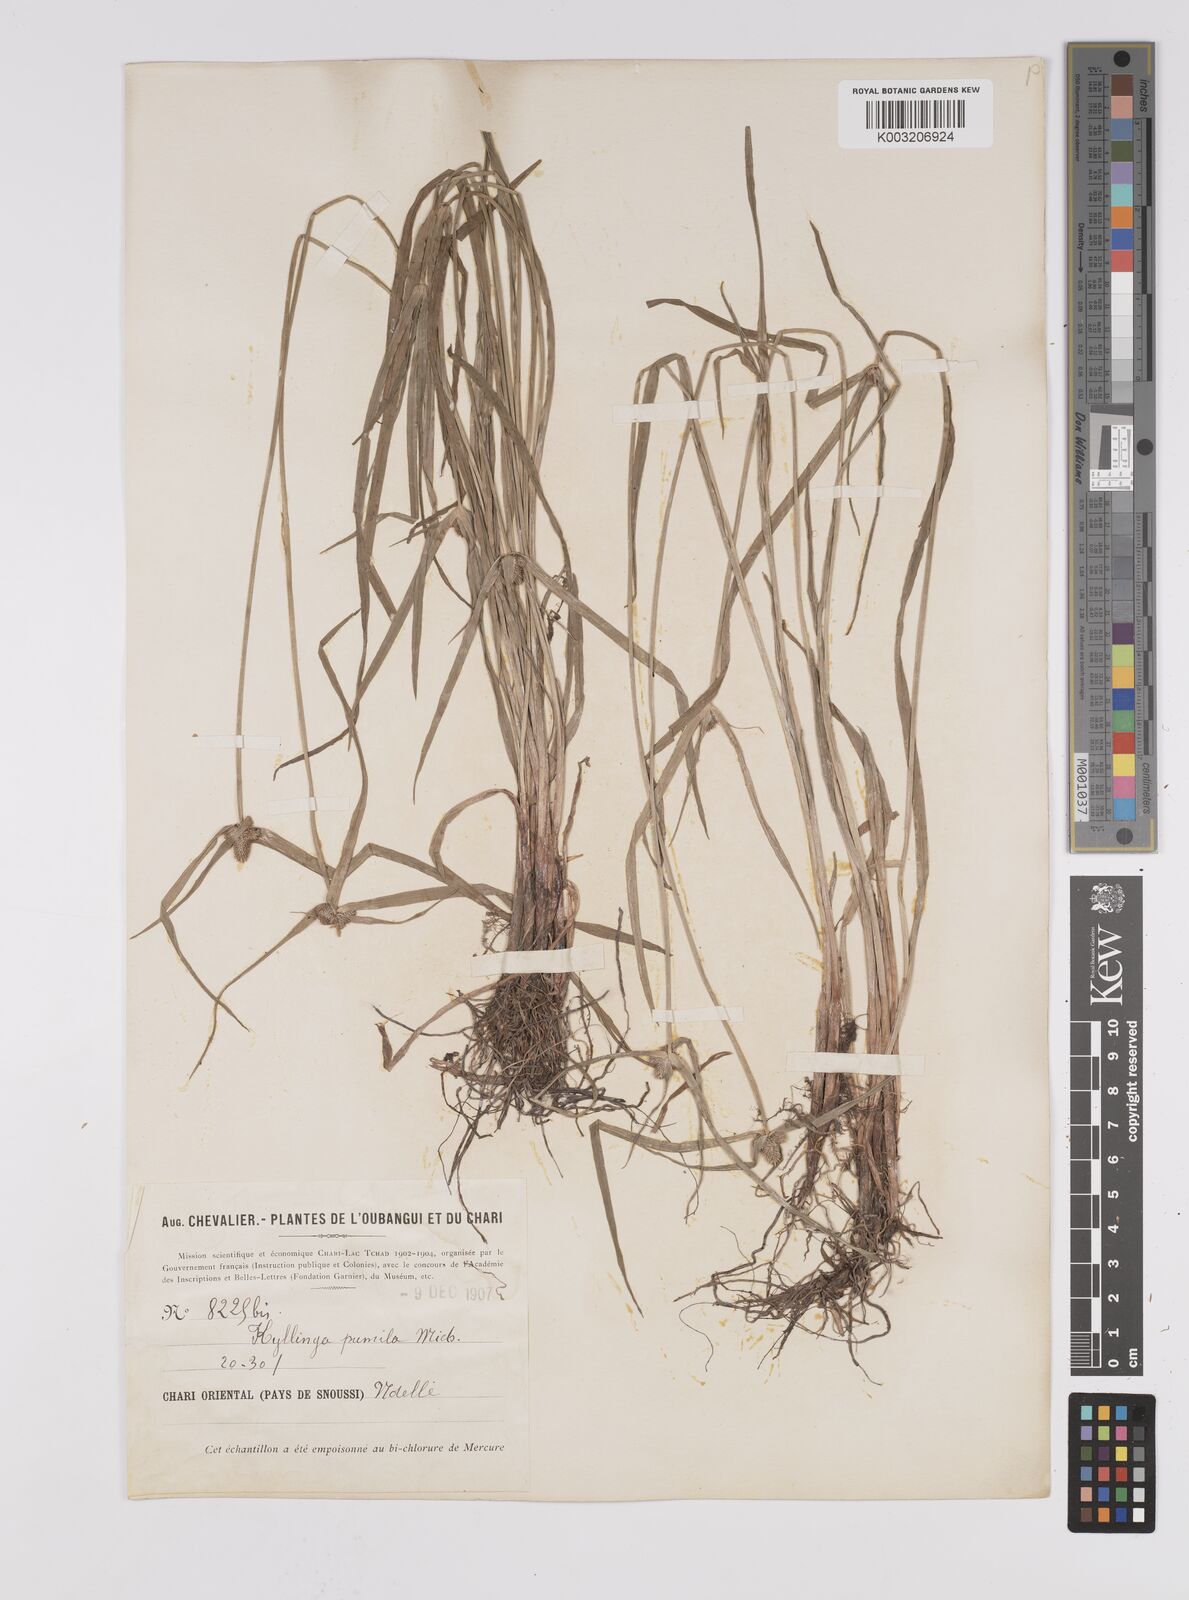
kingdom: Plantae
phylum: Tracheophyta
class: Liliopsida
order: Poales
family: Cyperaceae
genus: Cyperus
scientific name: Cyperus hortensis
